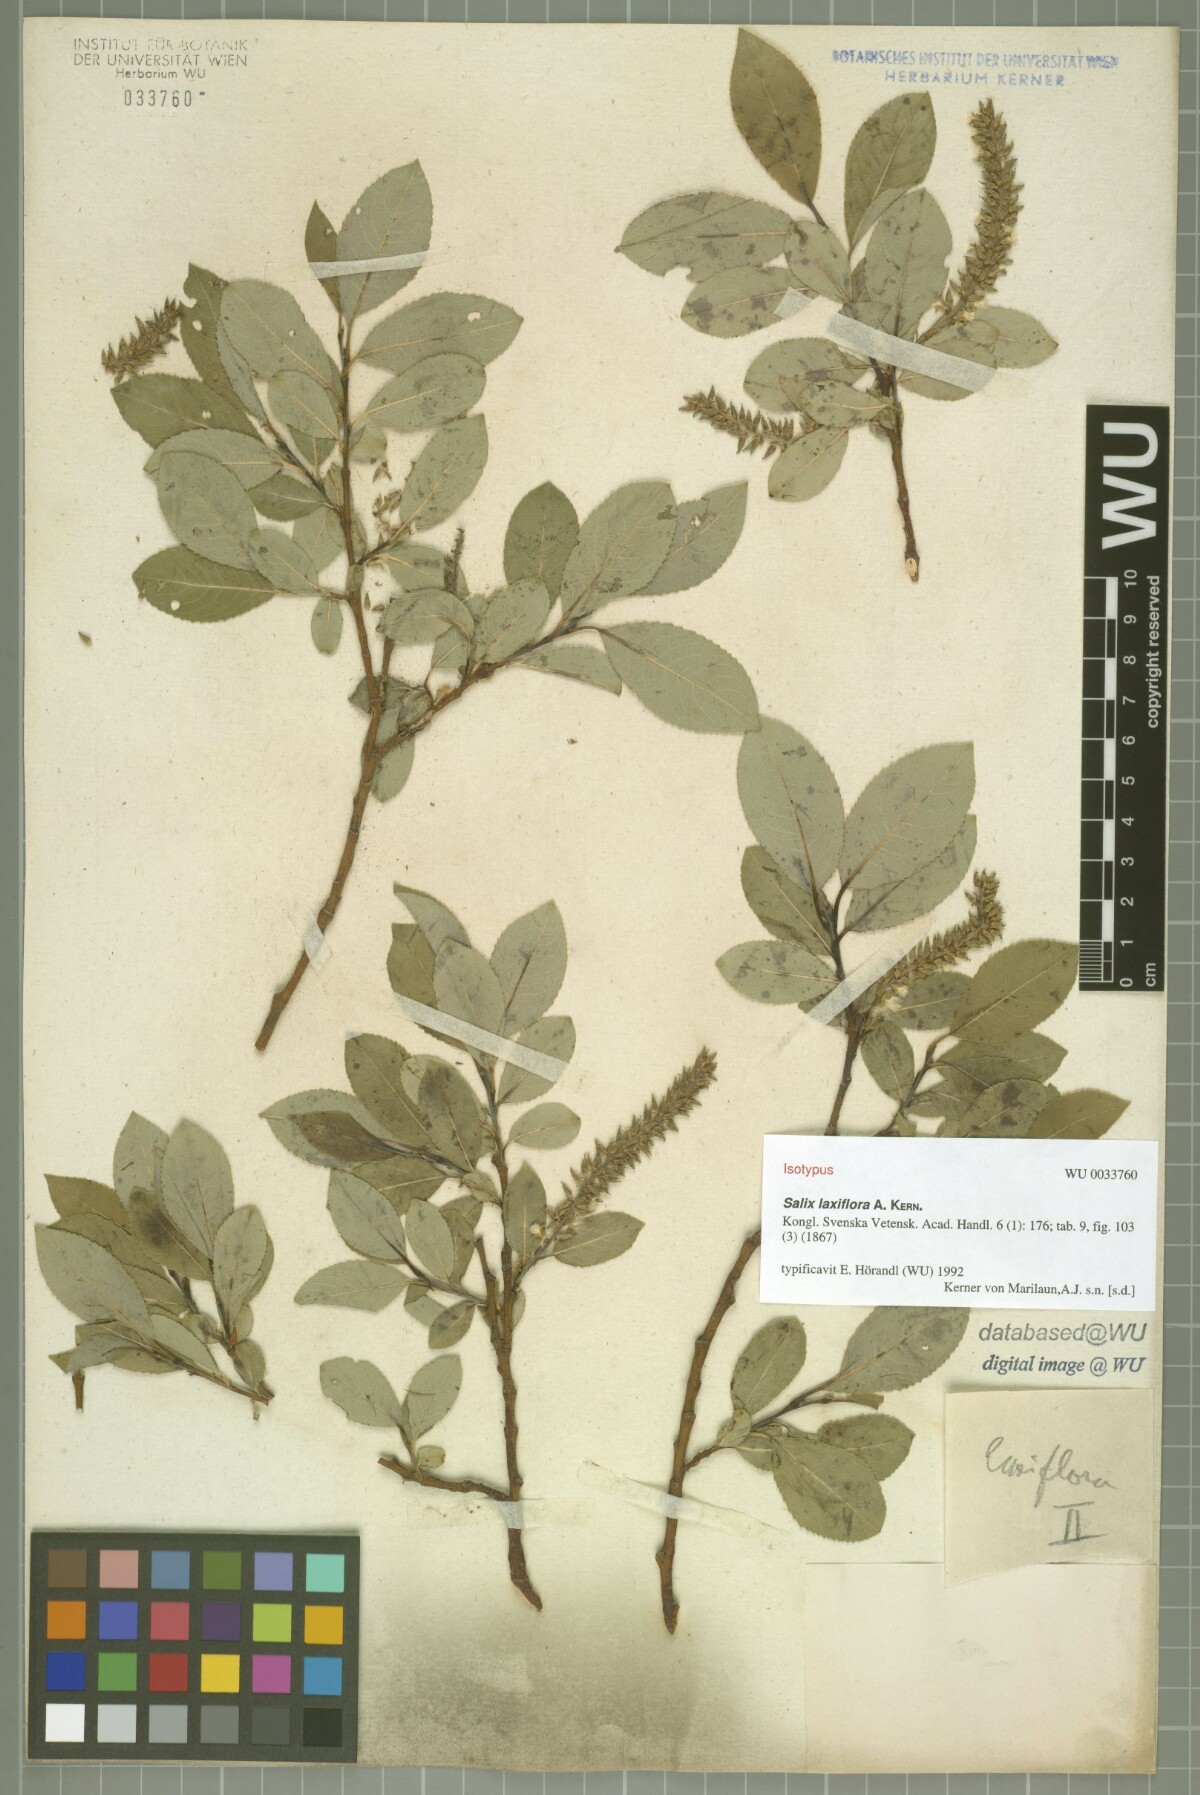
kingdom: Plantae
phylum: Tracheophyta
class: Magnoliopsida
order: Malpighiales
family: Salicaceae
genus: Salix
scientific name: Salix glabra
